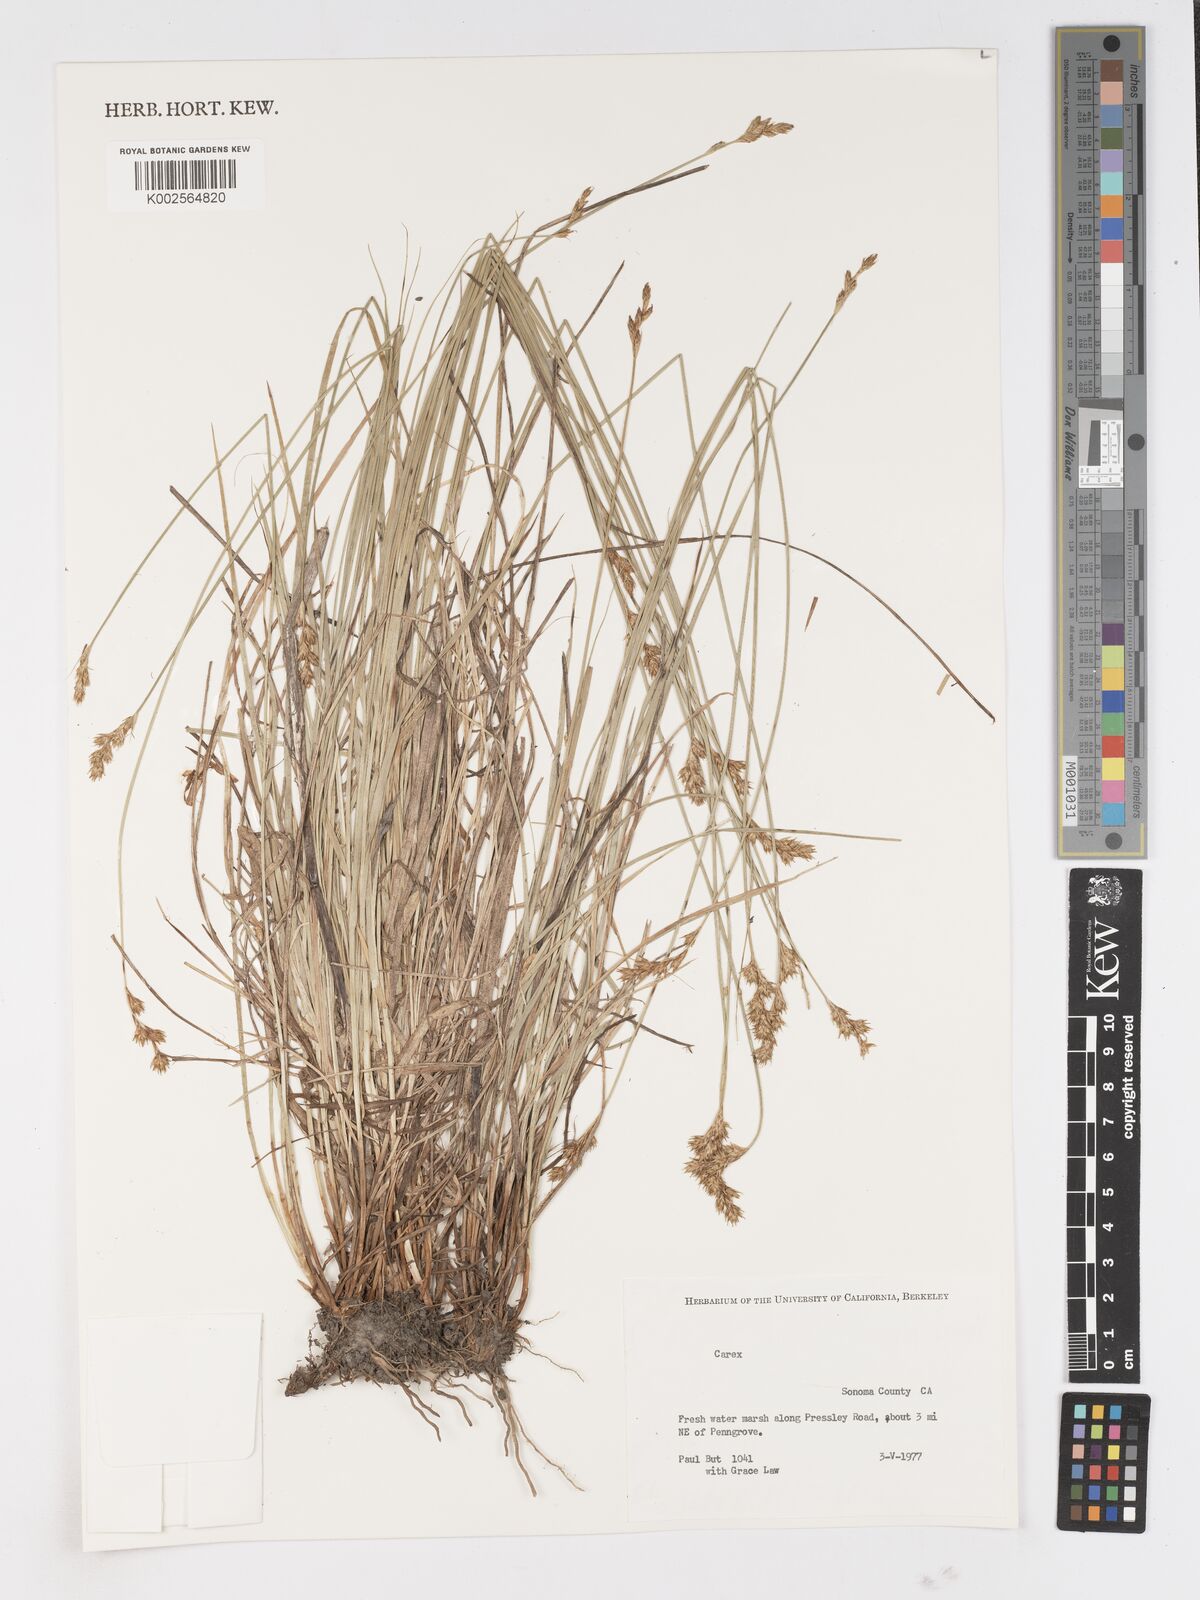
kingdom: Plantae
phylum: Tracheophyta
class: Liliopsida
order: Poales
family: Cyperaceae
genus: Carex
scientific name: Carex
